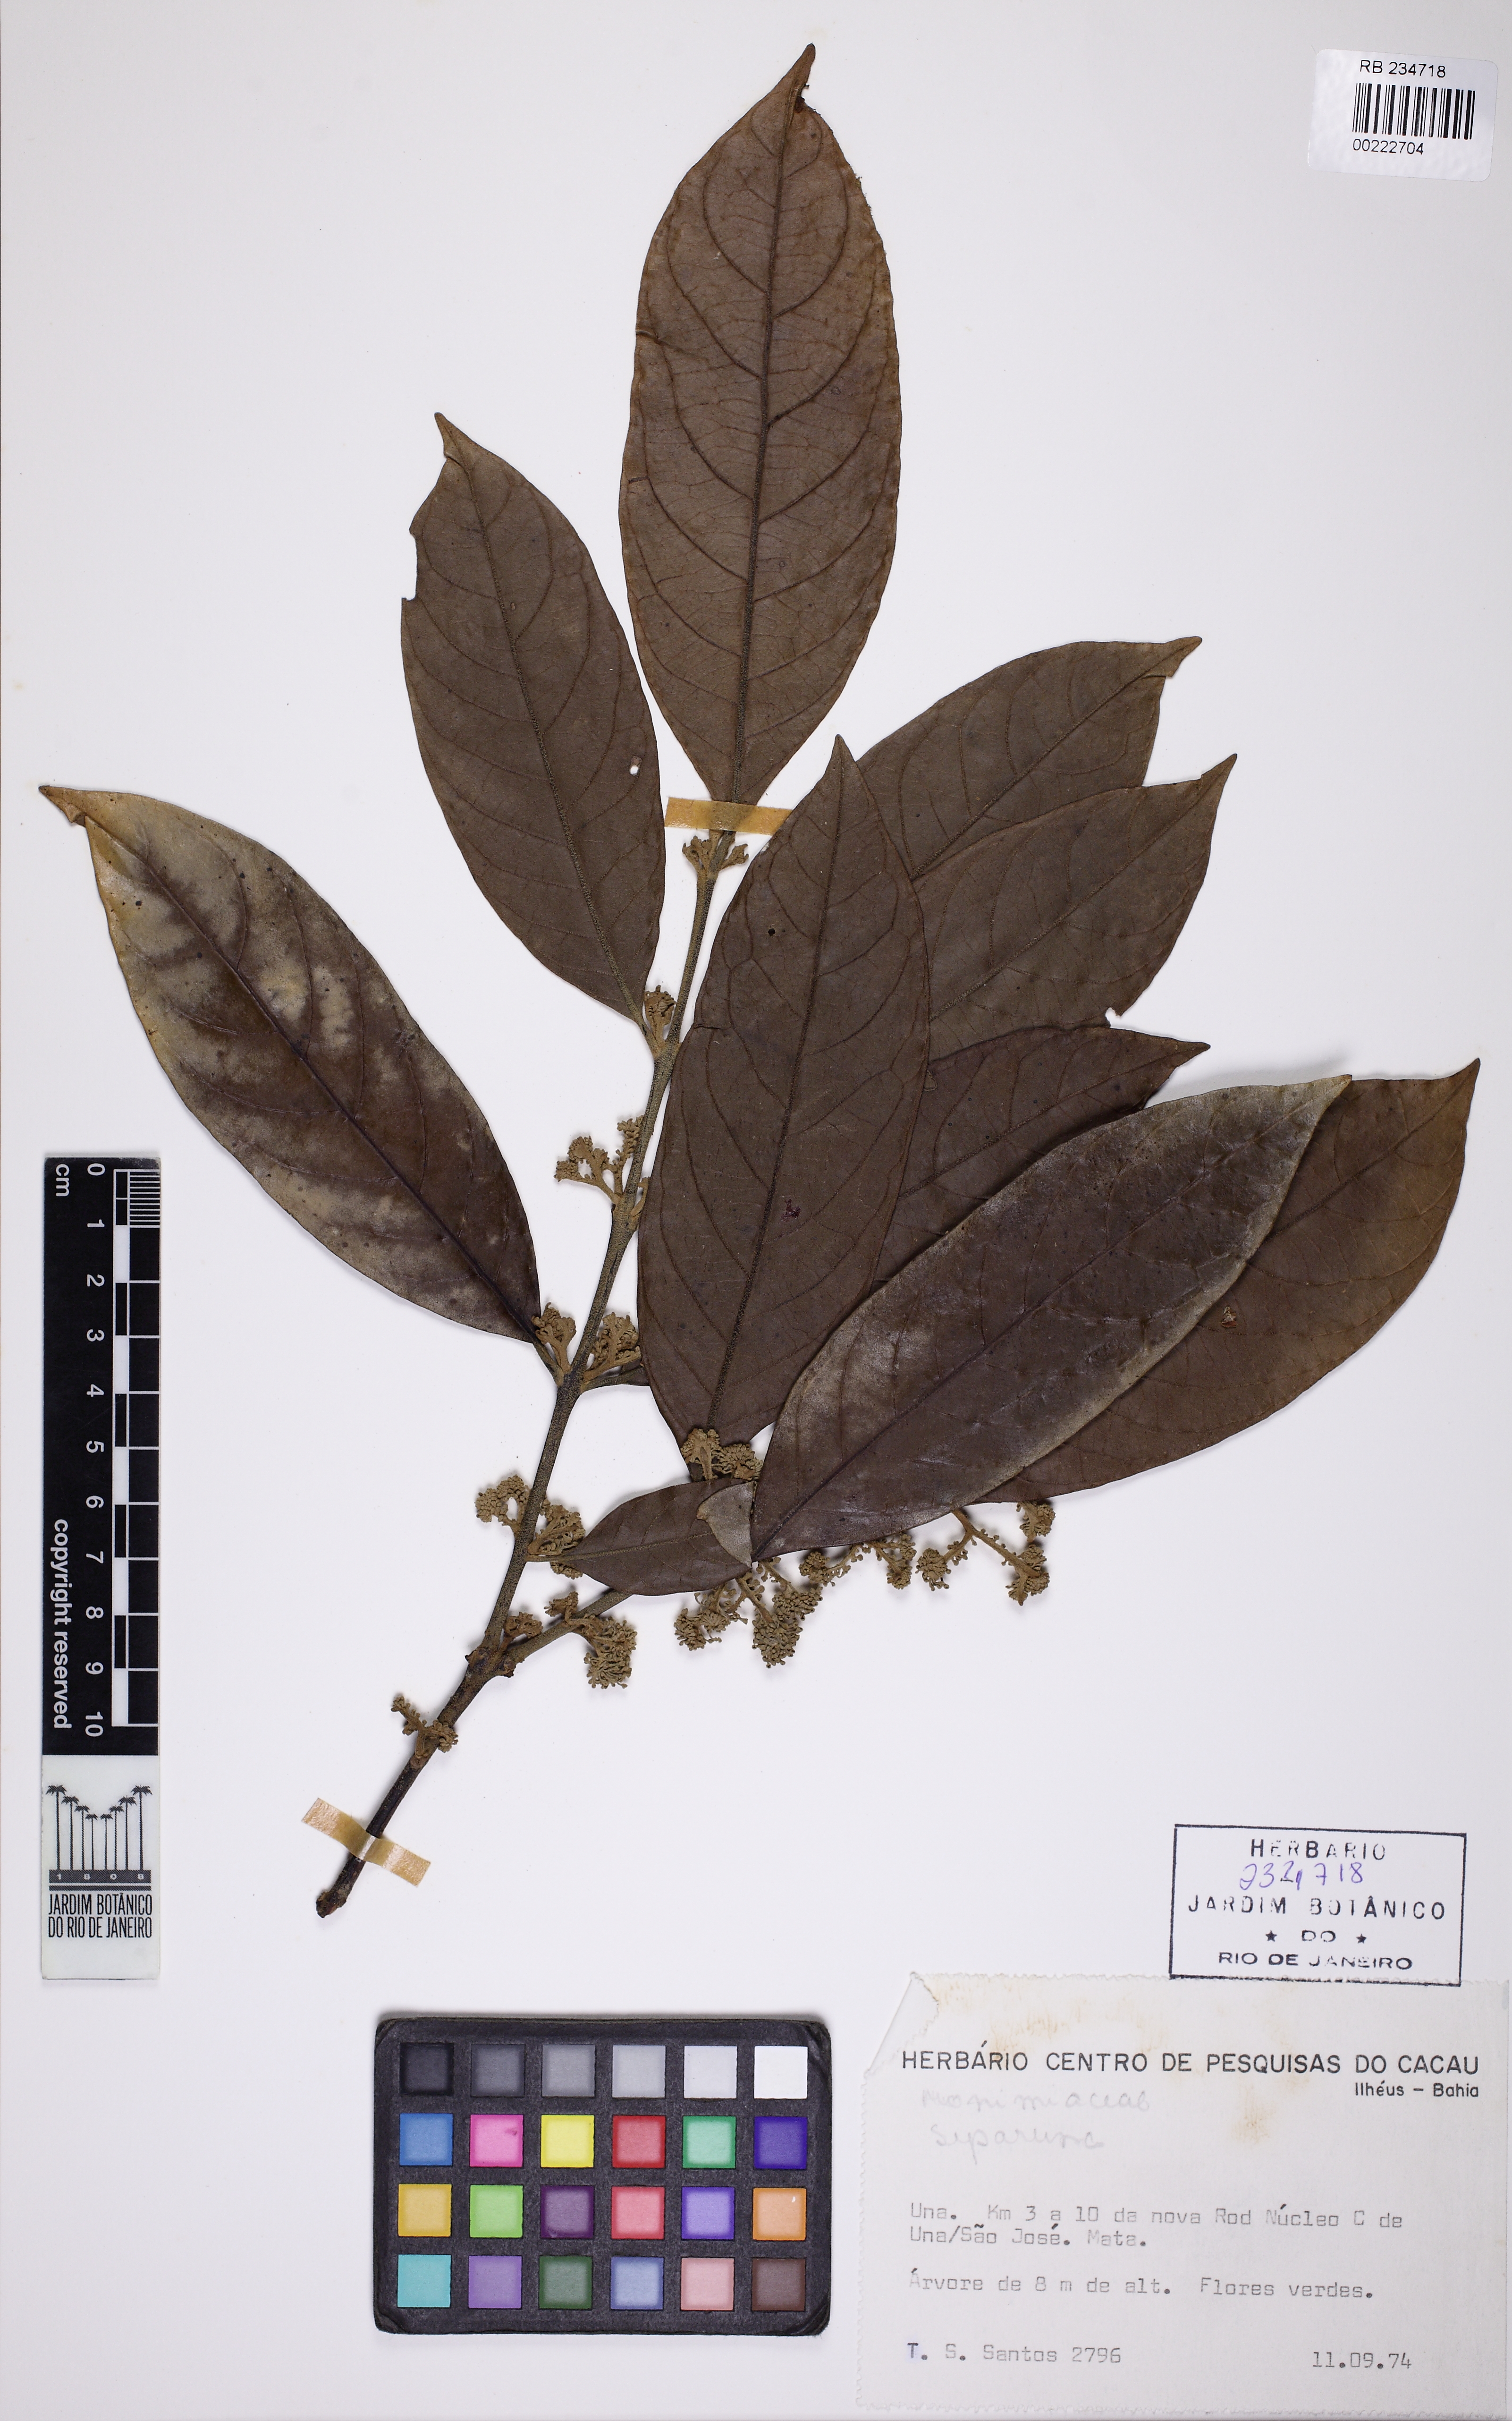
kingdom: Plantae
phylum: Tracheophyta
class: Magnoliopsida
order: Laurales
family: Siparunaceae
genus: Siparuna
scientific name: Siparuna reginae
